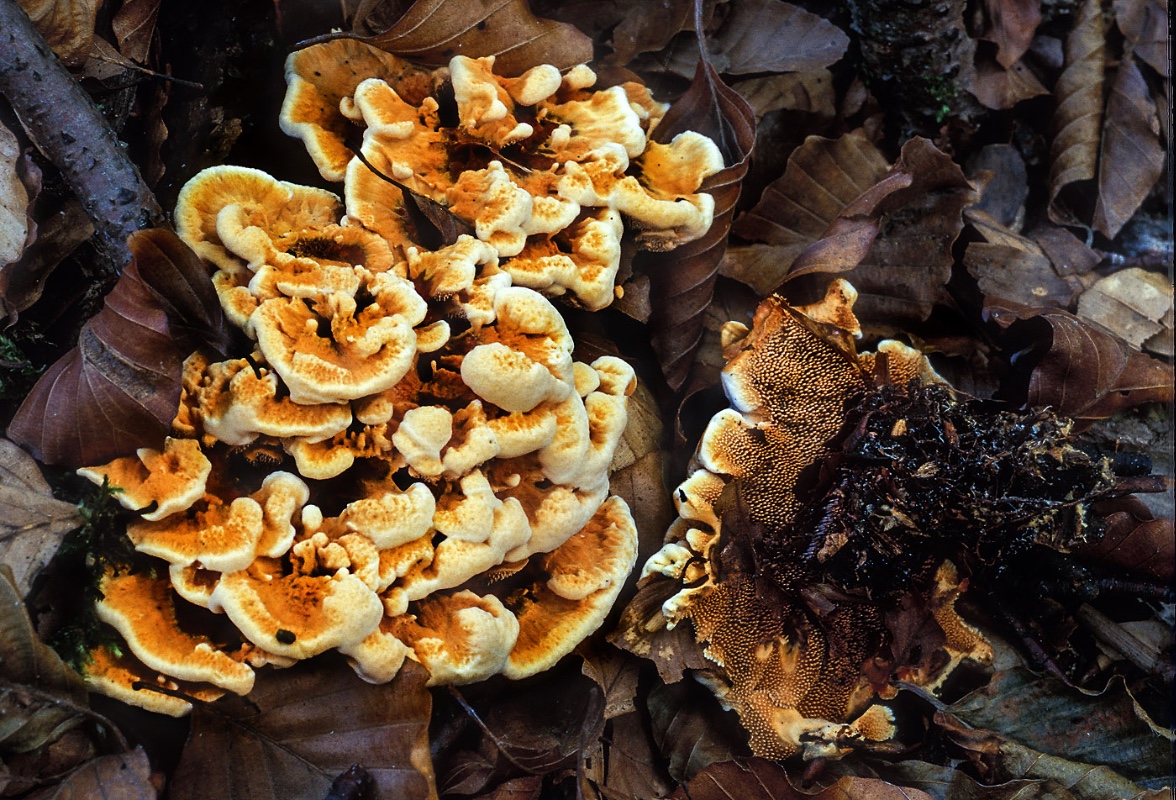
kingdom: Fungi
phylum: Basidiomycota
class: Agaricomycetes
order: Thelephorales
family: Bankeraceae
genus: Hydnellum
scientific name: Hydnellum auratile
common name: teglrød korkpigsvamp
